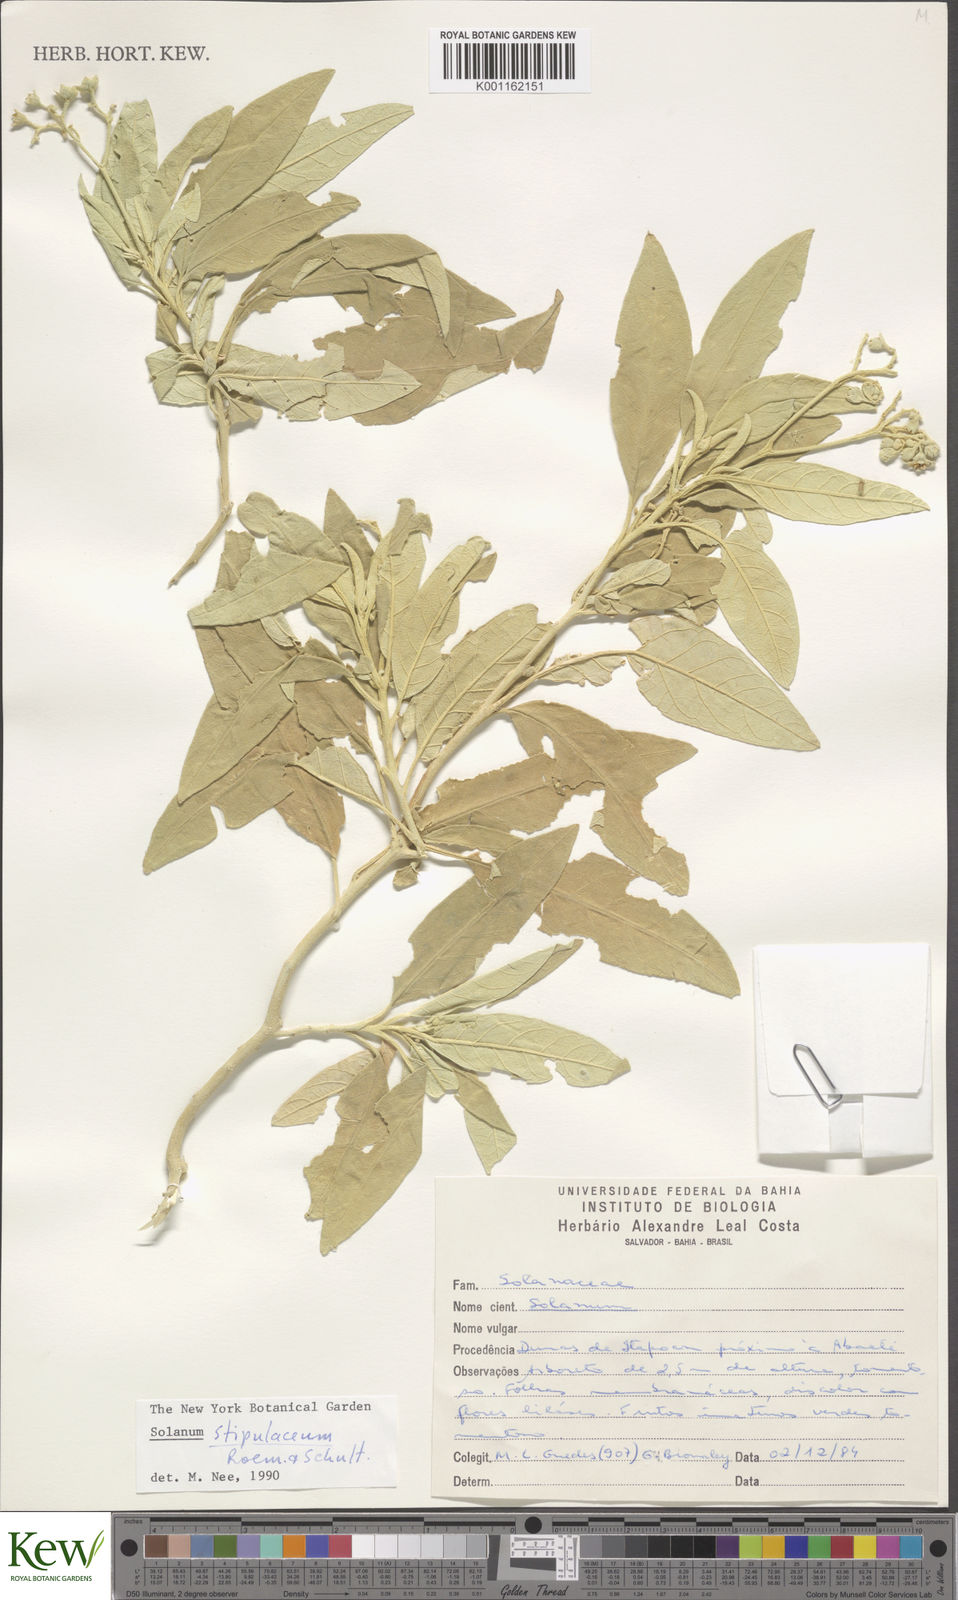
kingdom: Plantae
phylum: Tracheophyta
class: Magnoliopsida
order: Solanales
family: Solanaceae
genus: Solanum
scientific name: Solanum stipulaceum
